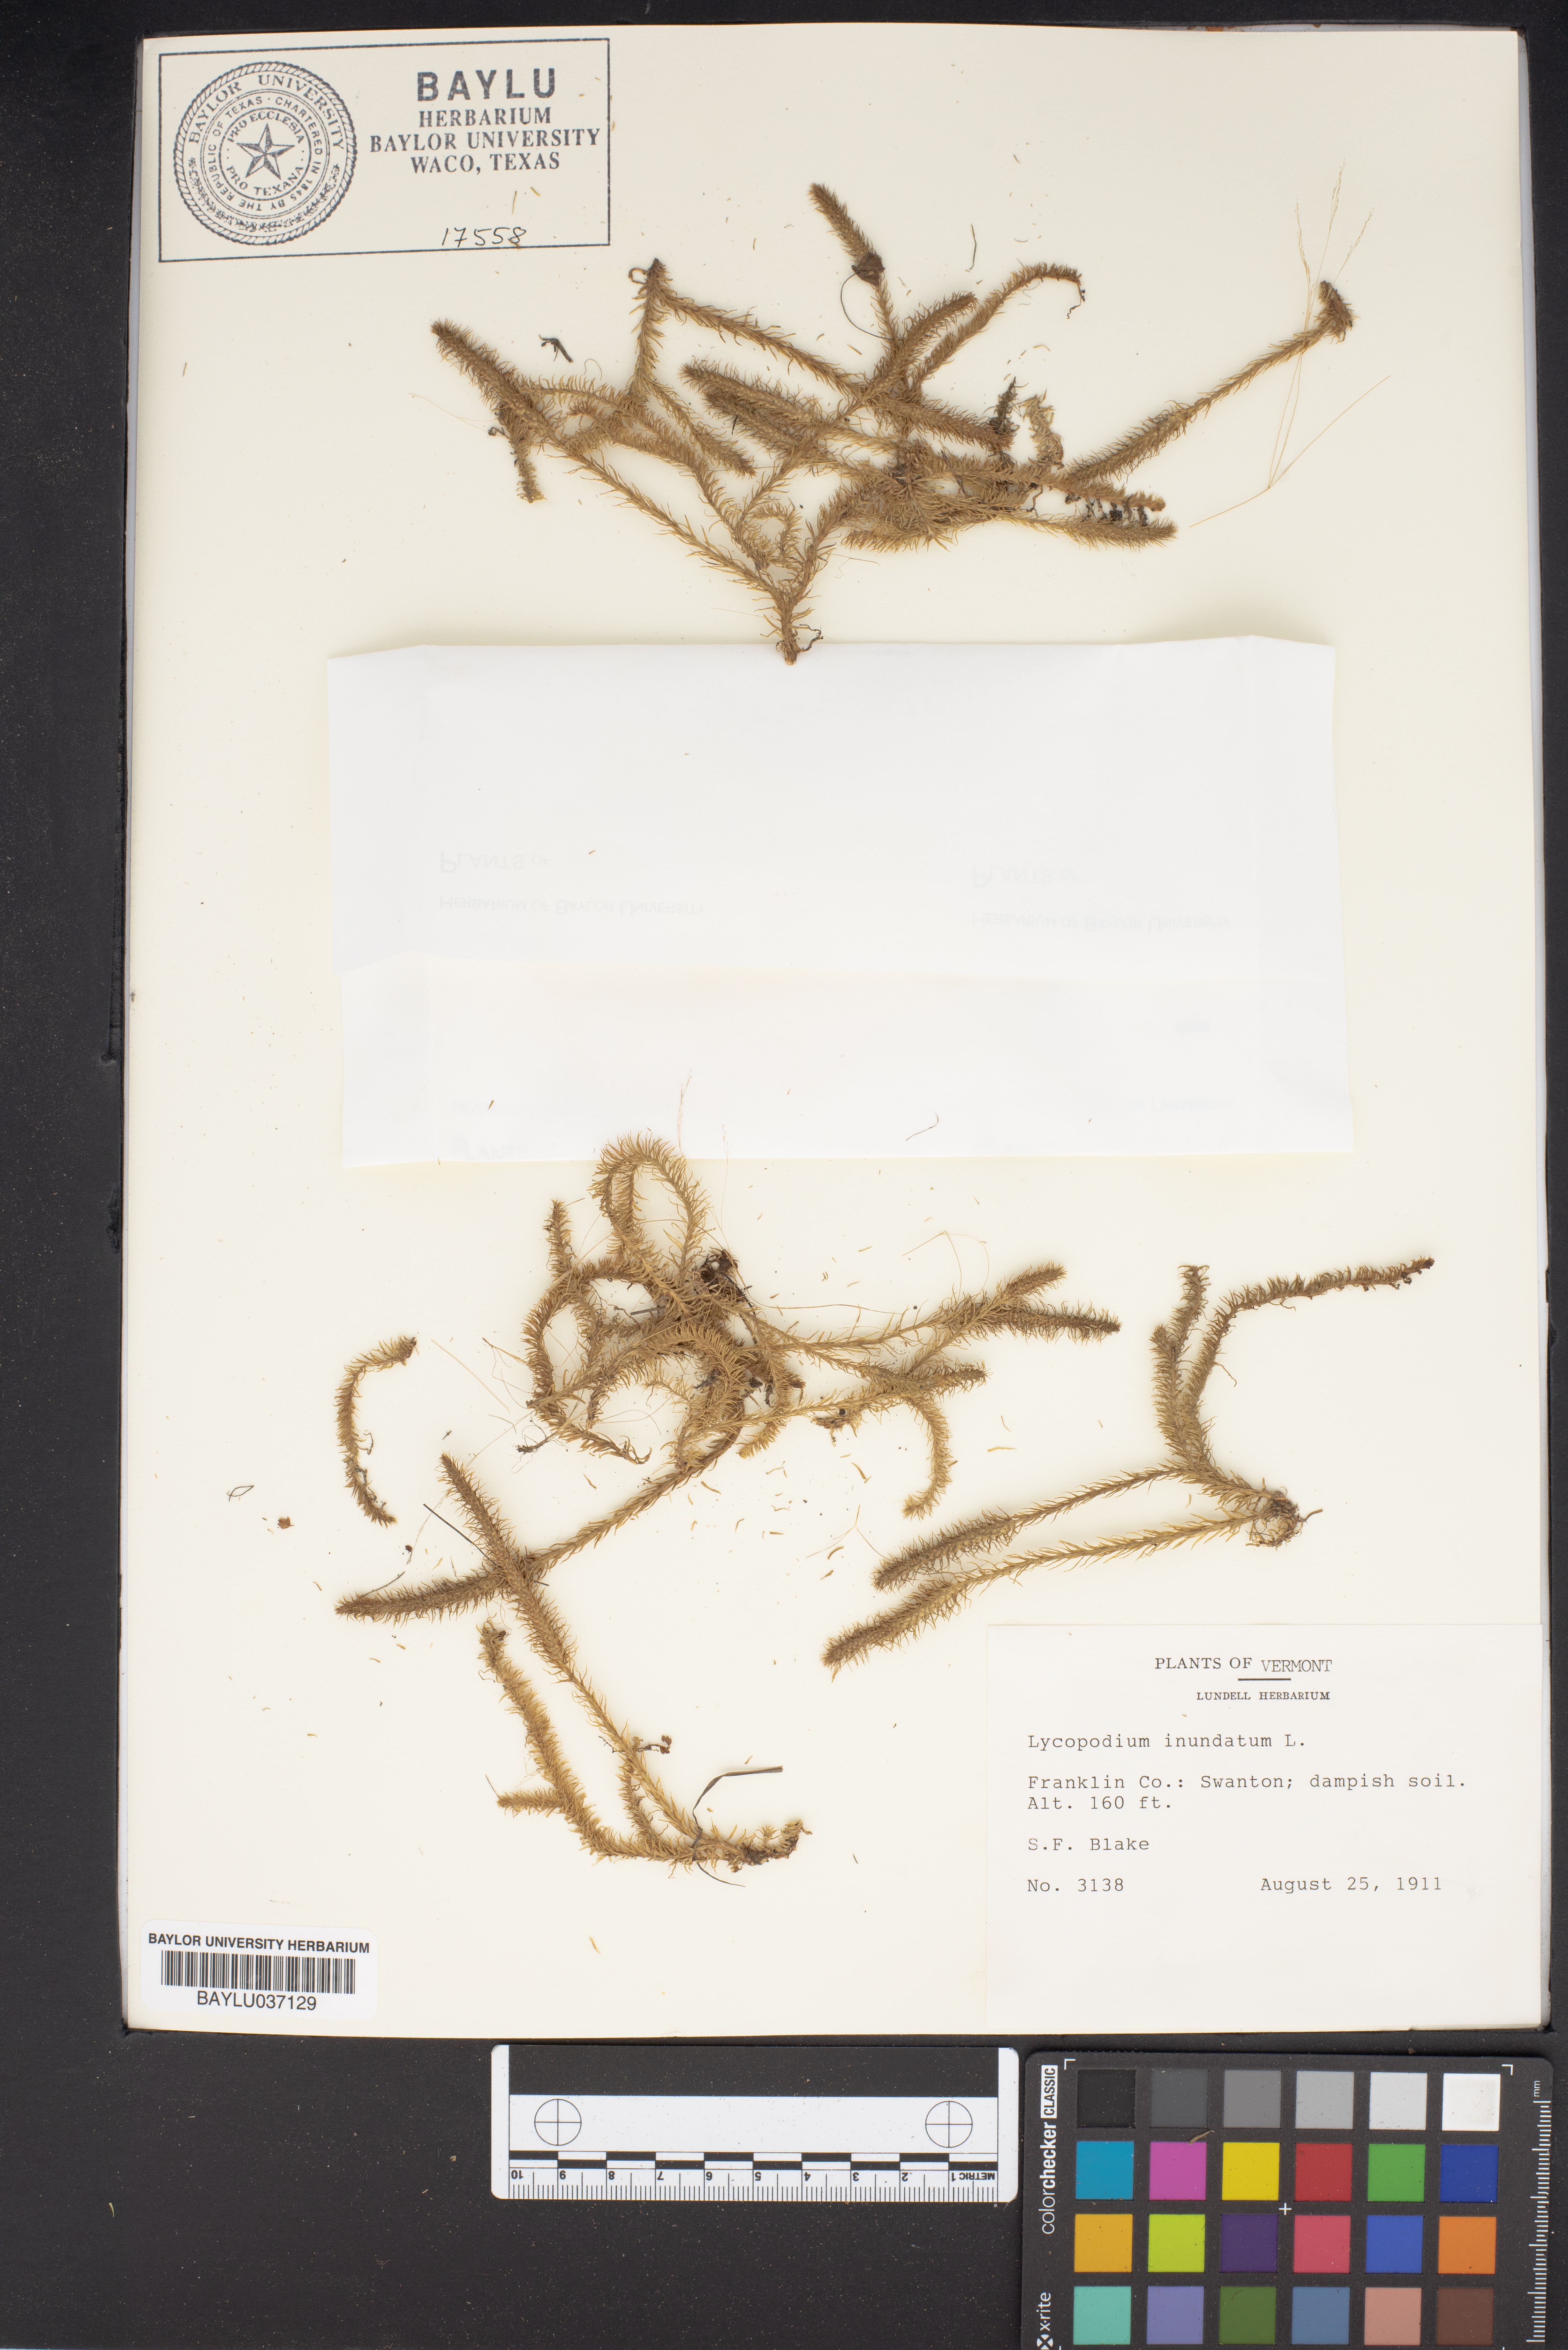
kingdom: Plantae
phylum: Tracheophyta
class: Lycopodiopsida
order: Lycopodiales
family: Lycopodiaceae
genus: Lycopodiella
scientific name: Lycopodiella inundata
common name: Marsh clubmoss
